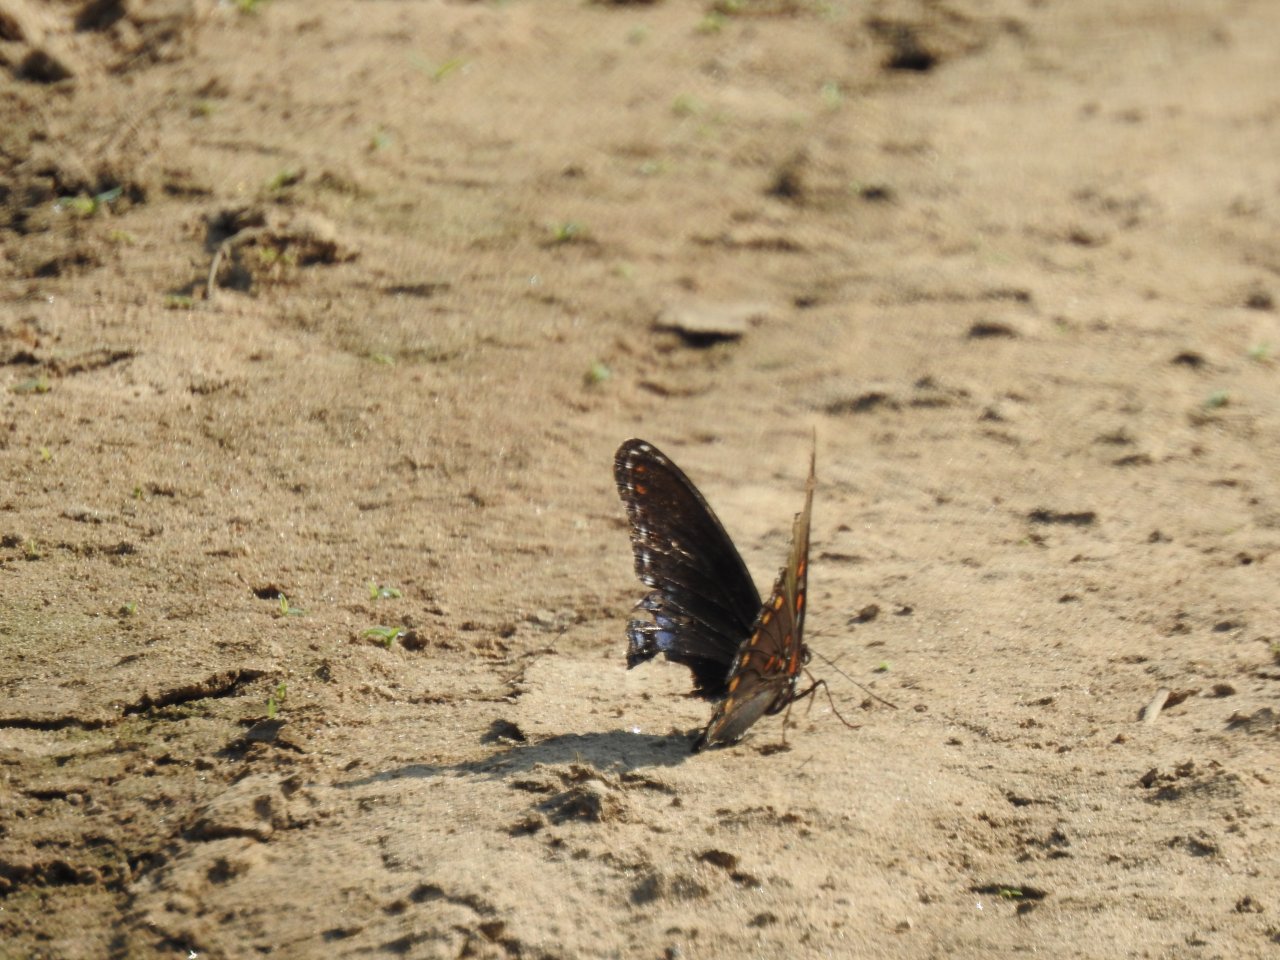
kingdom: Animalia
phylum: Arthropoda
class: Insecta
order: Lepidoptera
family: Nymphalidae
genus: Limenitis
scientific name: Limenitis arthemis
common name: Red-spotted Admiral
